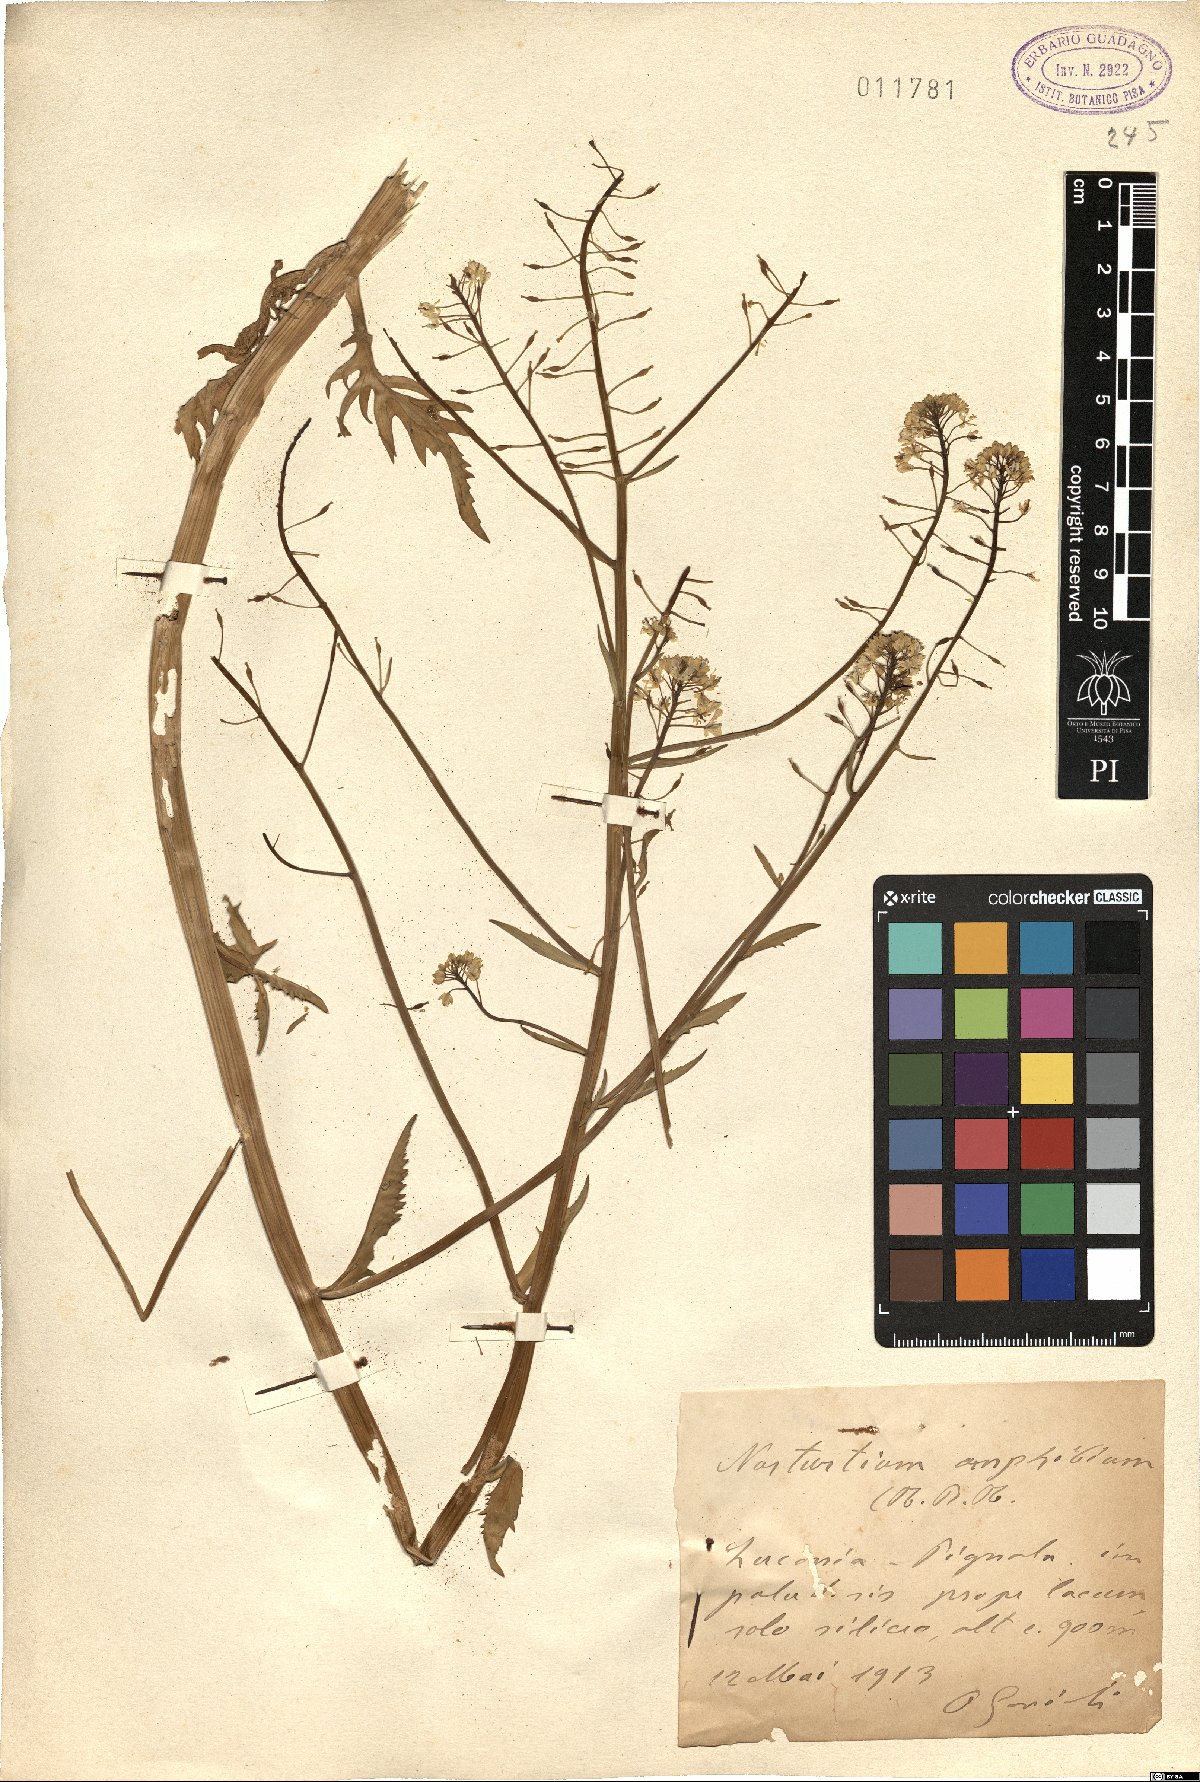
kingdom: Plantae
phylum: Tracheophyta
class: Magnoliopsida
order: Brassicales
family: Brassicaceae
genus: Rorippa
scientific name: Rorippa amphibia
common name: Great yellow-cress
